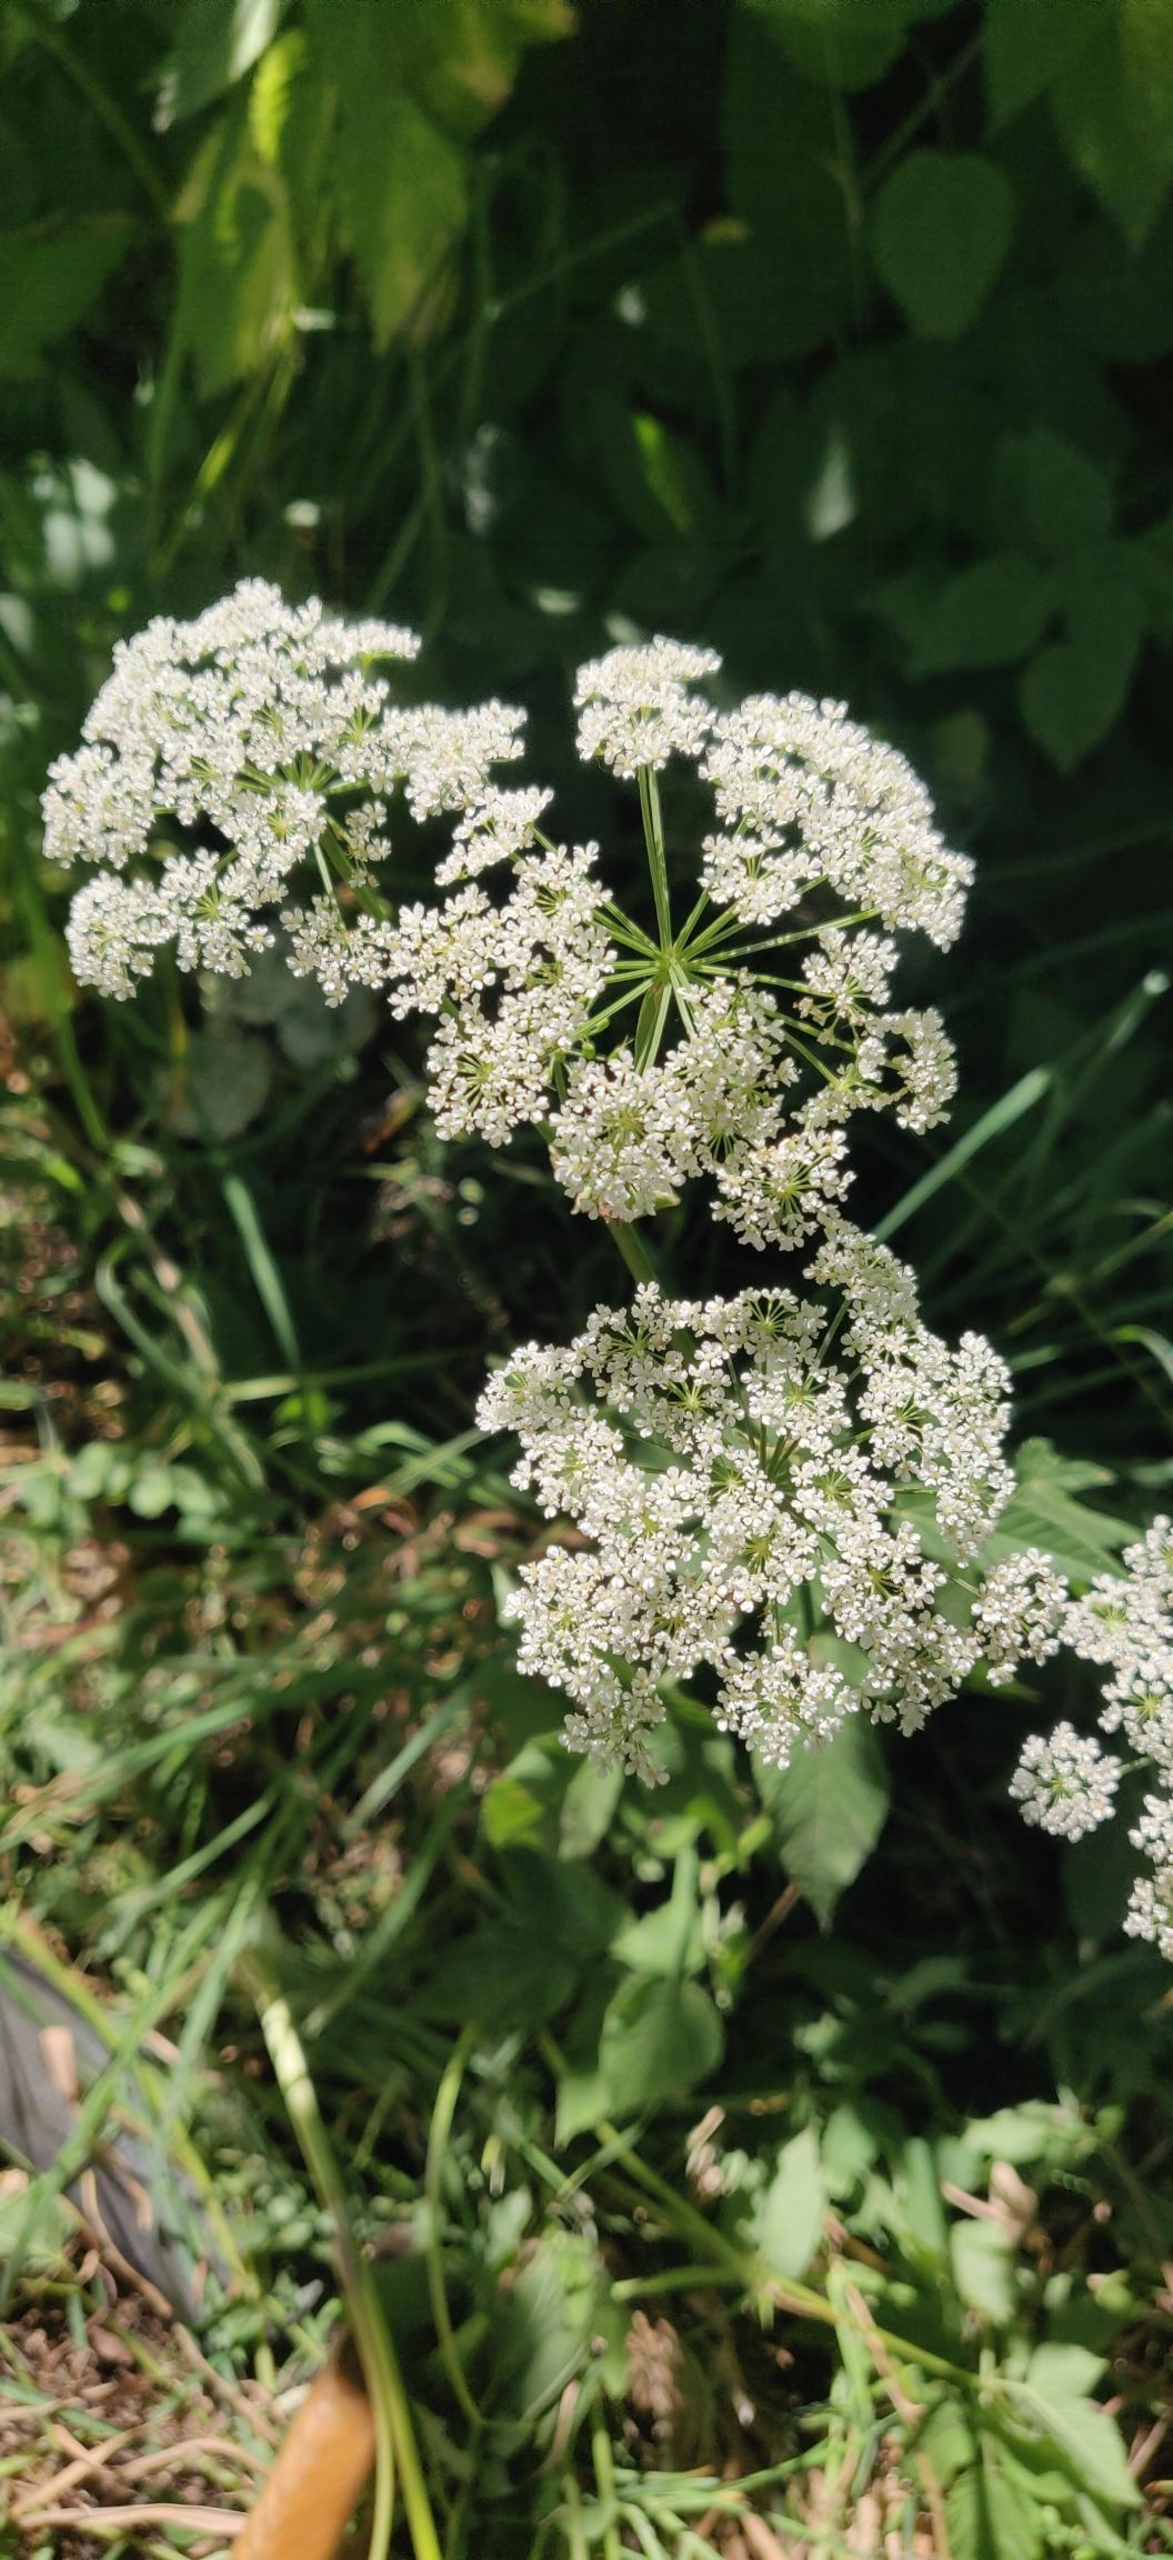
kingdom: Plantae
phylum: Tracheophyta
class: Magnoliopsida
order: Apiales
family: Apiaceae
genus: Aegopodium
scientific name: Aegopodium podagraria
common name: Skvalderkål
